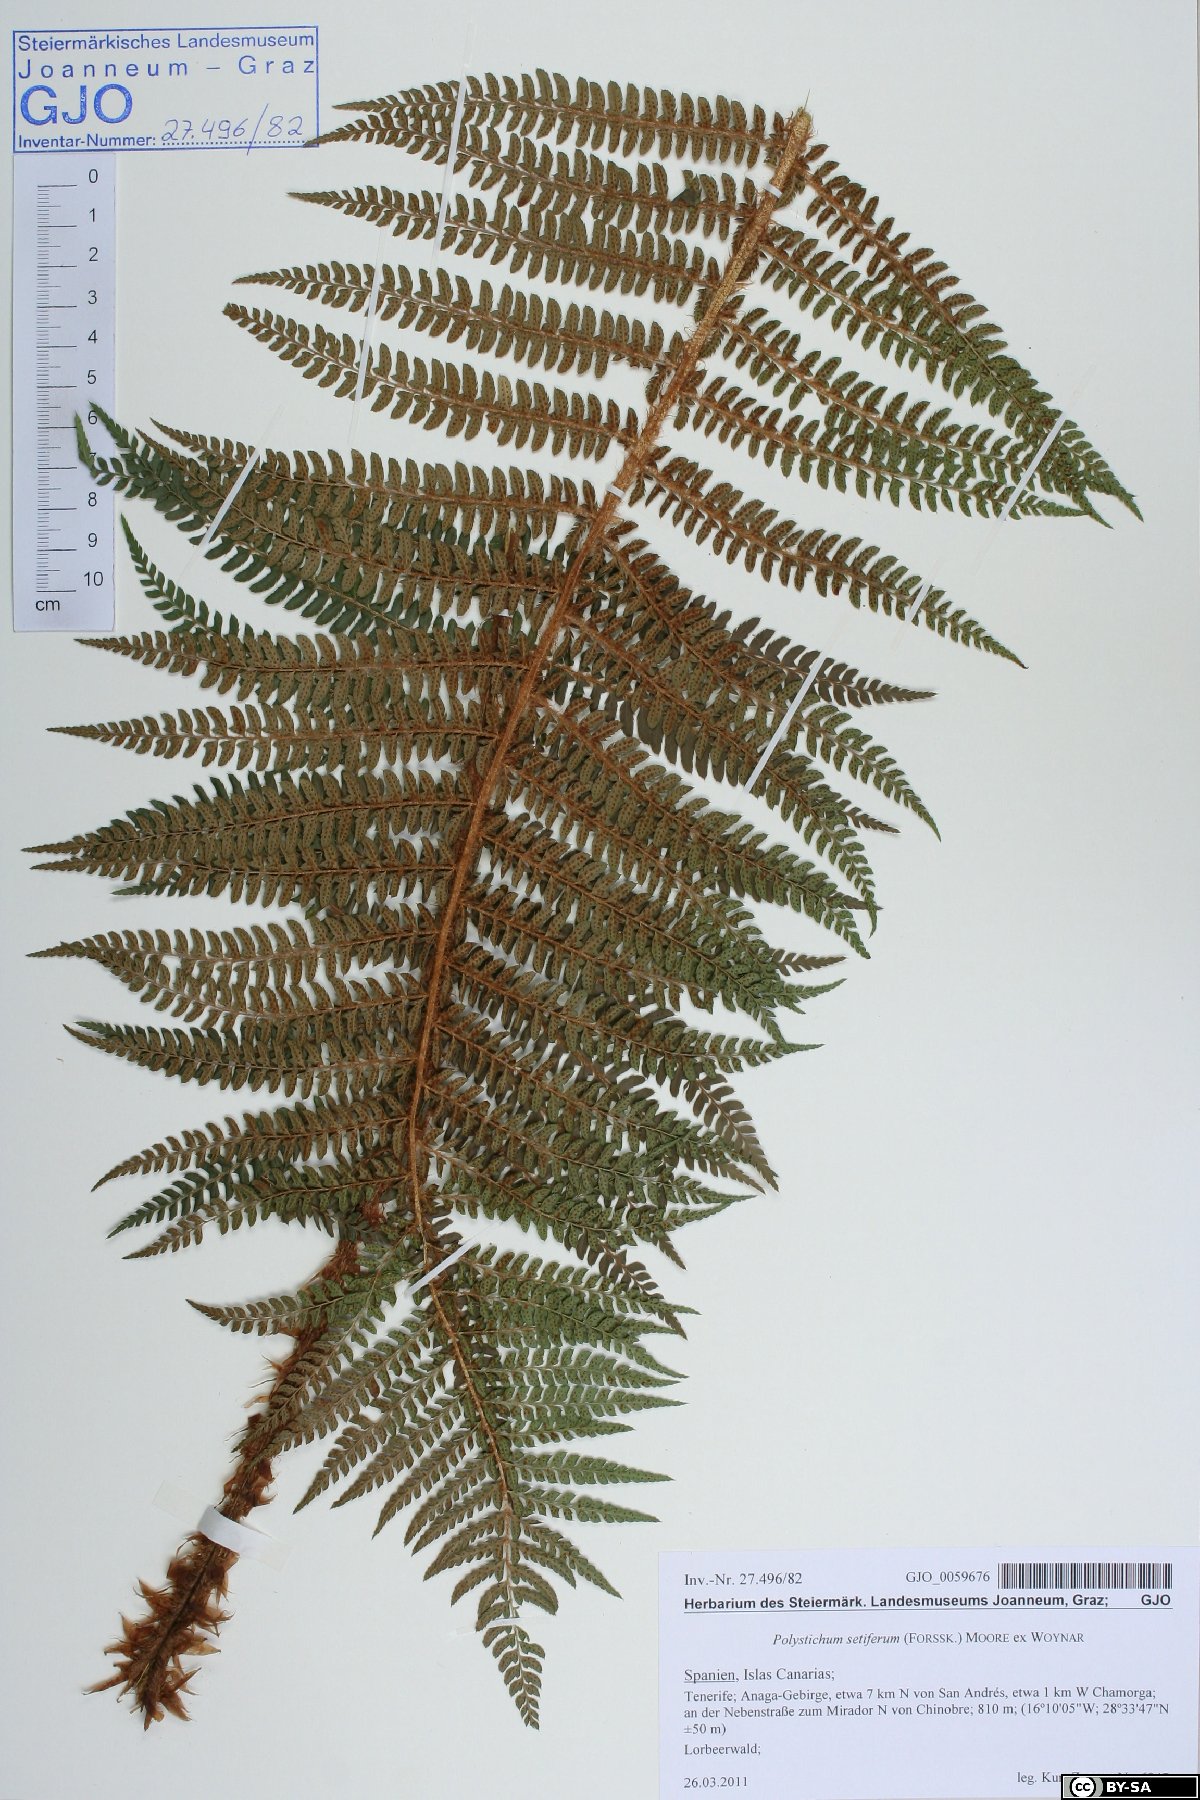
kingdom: Plantae
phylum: Tracheophyta
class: Polypodiopsida
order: Polypodiales
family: Dryopteridaceae
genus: Polystichum
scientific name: Polystichum setiferum
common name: Soft shield-fern
